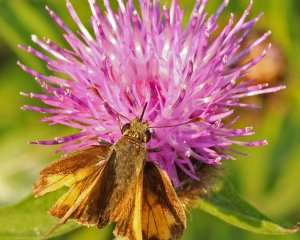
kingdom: Animalia
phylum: Arthropoda
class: Insecta
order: Lepidoptera
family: Hesperiidae
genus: Lon
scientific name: Lon hobomok
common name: Hobomok Skipper
